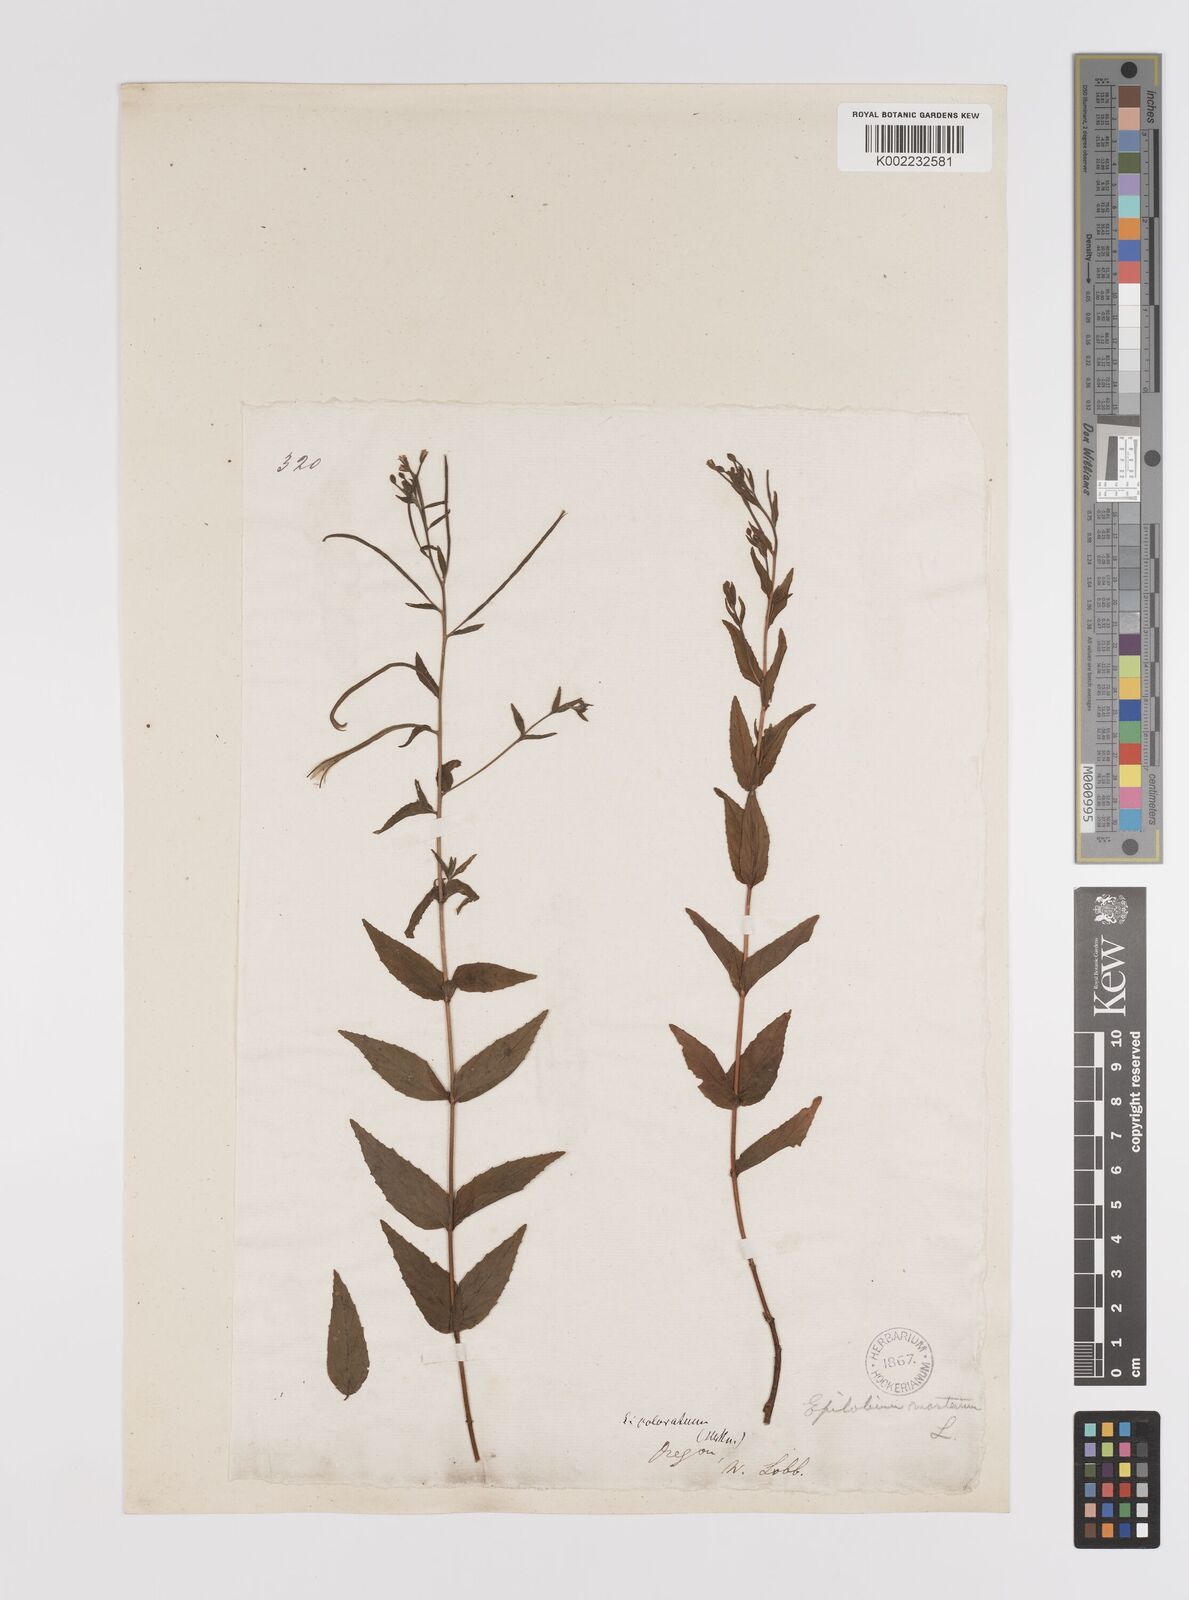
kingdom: Plantae
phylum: Tracheophyta
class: Magnoliopsida
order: Myrtales
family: Onagraceae
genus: Epilobium
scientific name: Epilobium coloratum
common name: Bronze willowherb
